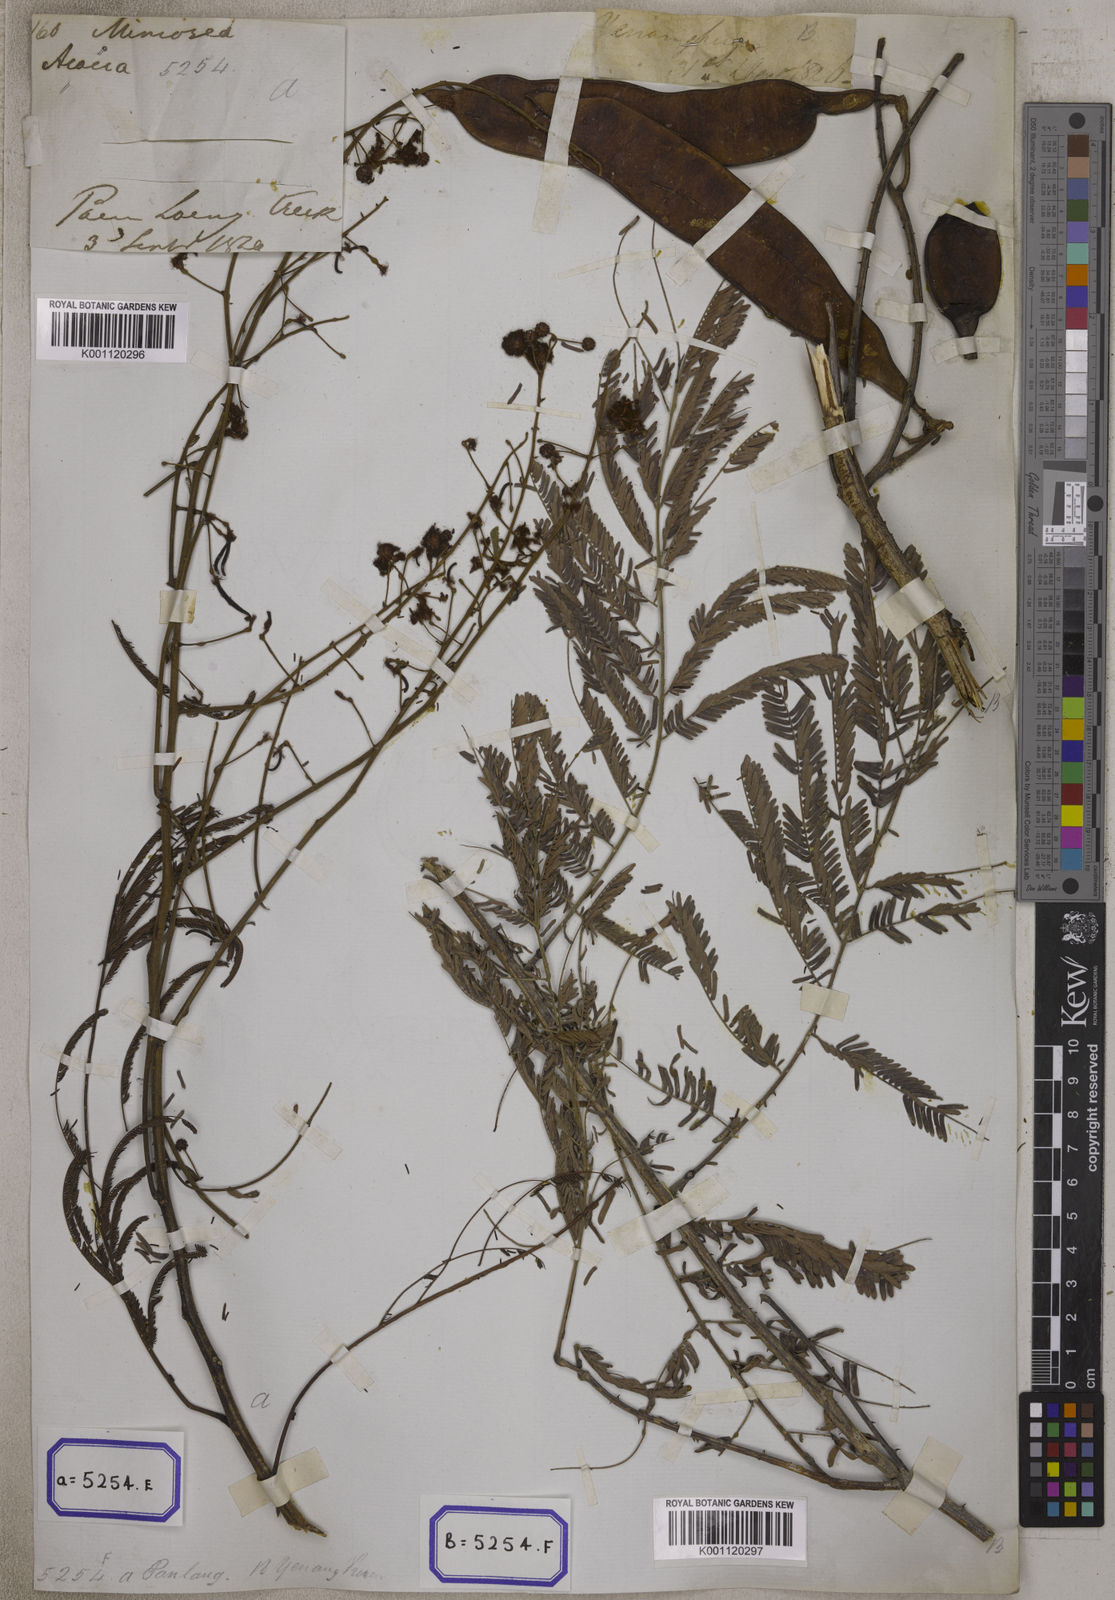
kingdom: Plantae
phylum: Tracheophyta
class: Magnoliopsida
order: Fabales
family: Fabaceae
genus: Senegalia
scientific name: Senegalia pennata
